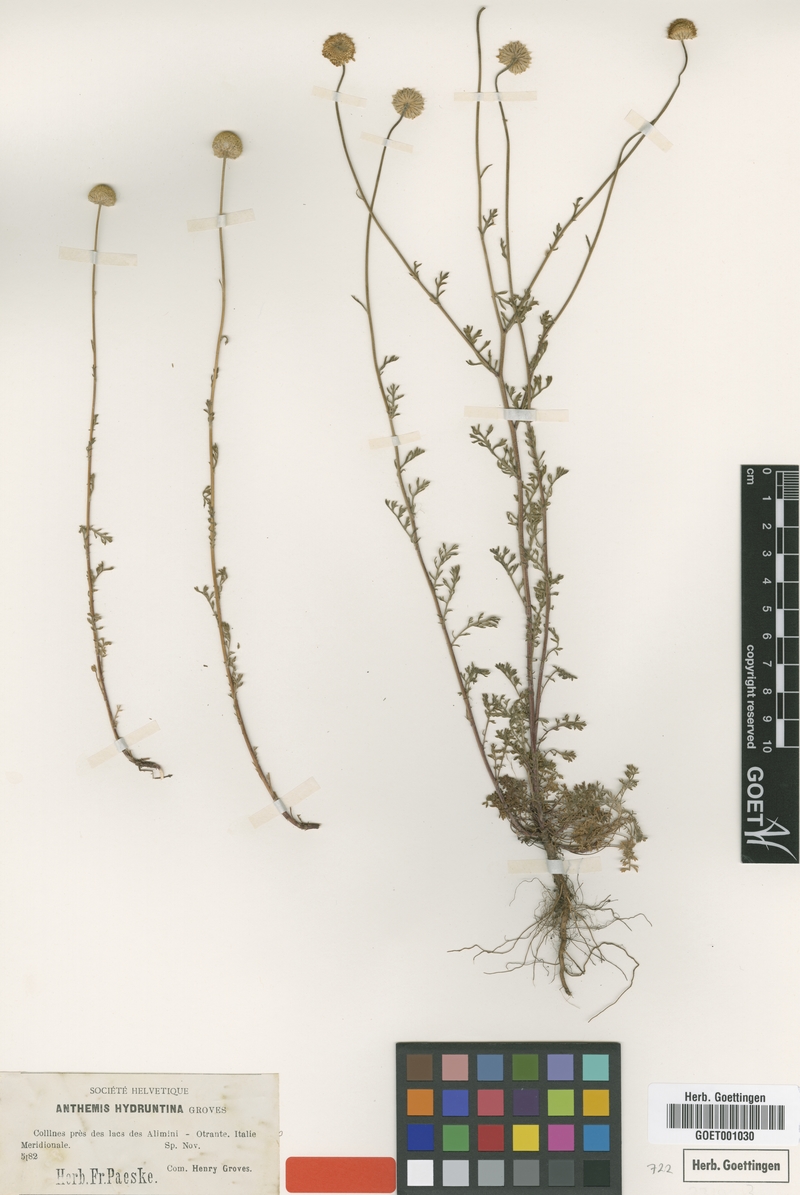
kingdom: Plantae
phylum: Tracheophyta
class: Magnoliopsida
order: Asterales
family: Asteraceae
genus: Anthemis
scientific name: Anthemis hydruntina
